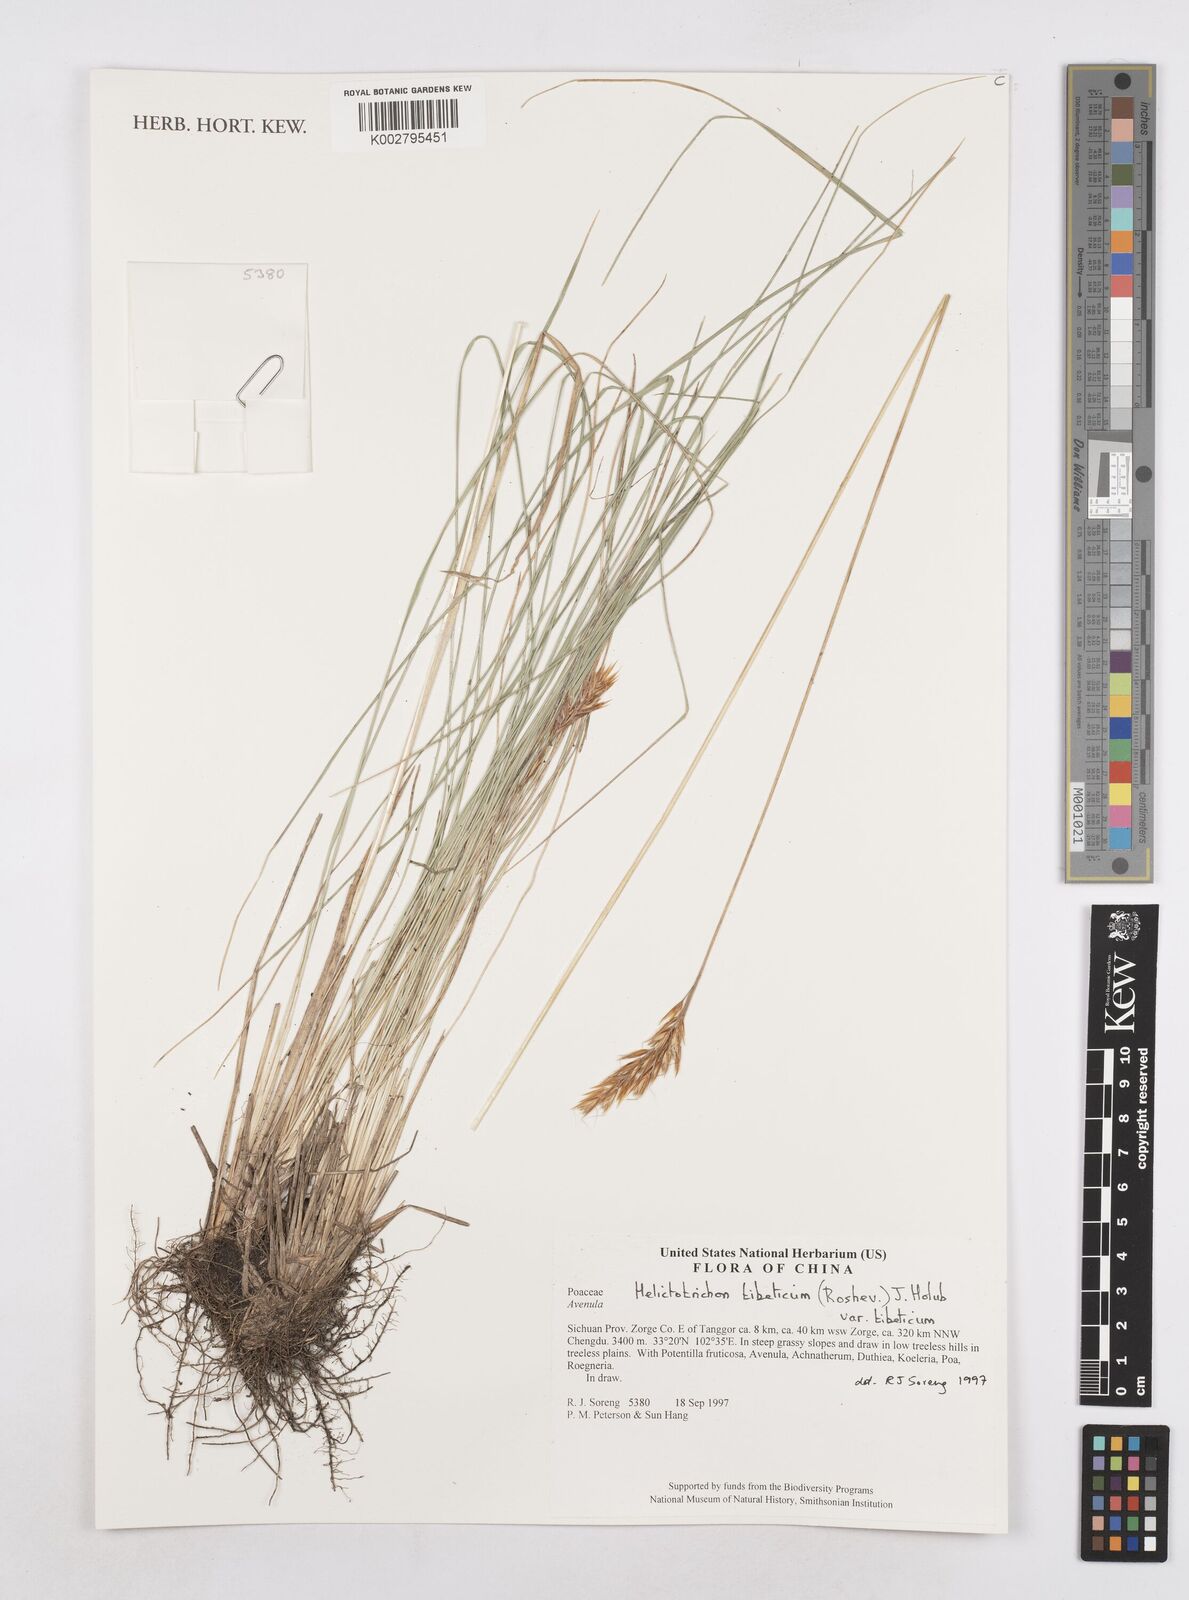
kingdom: Plantae
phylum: Tracheophyta
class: Liliopsida
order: Poales
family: Poaceae
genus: Helictotrichon
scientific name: Helictotrichon tibeticum
